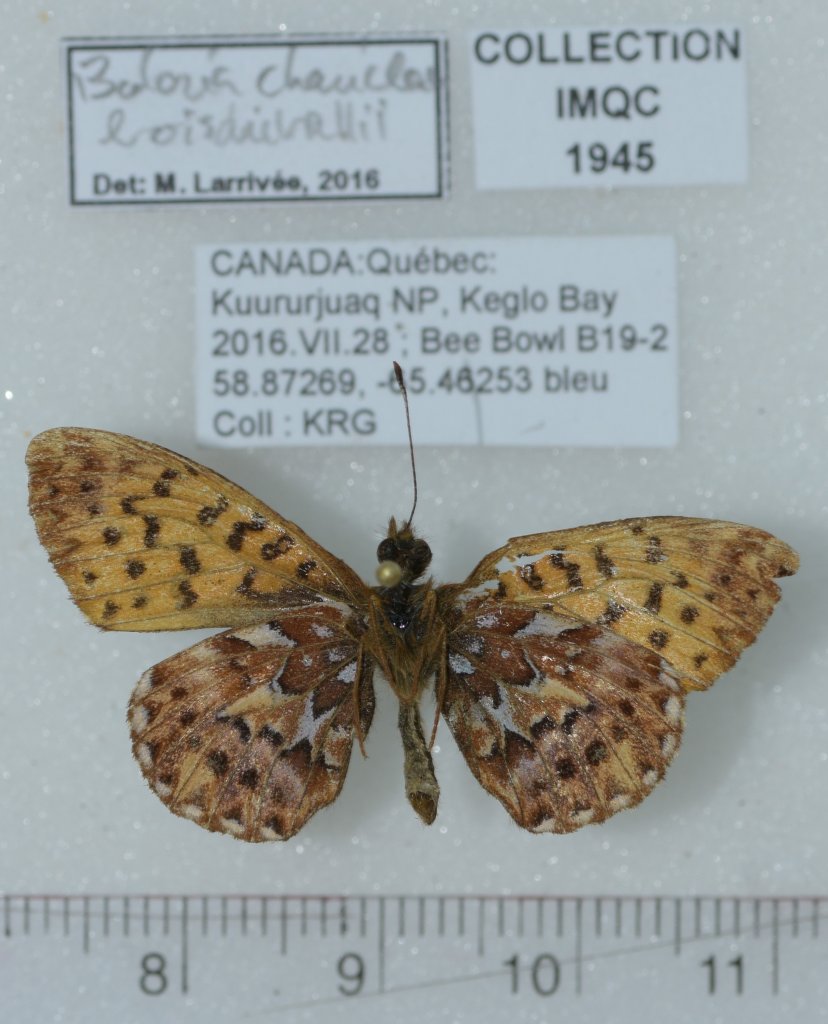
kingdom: Animalia
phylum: Arthropoda
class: Insecta
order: Lepidoptera
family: Nymphalidae
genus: Boloria
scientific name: Boloria chariclea
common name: Arctic Fritillary
